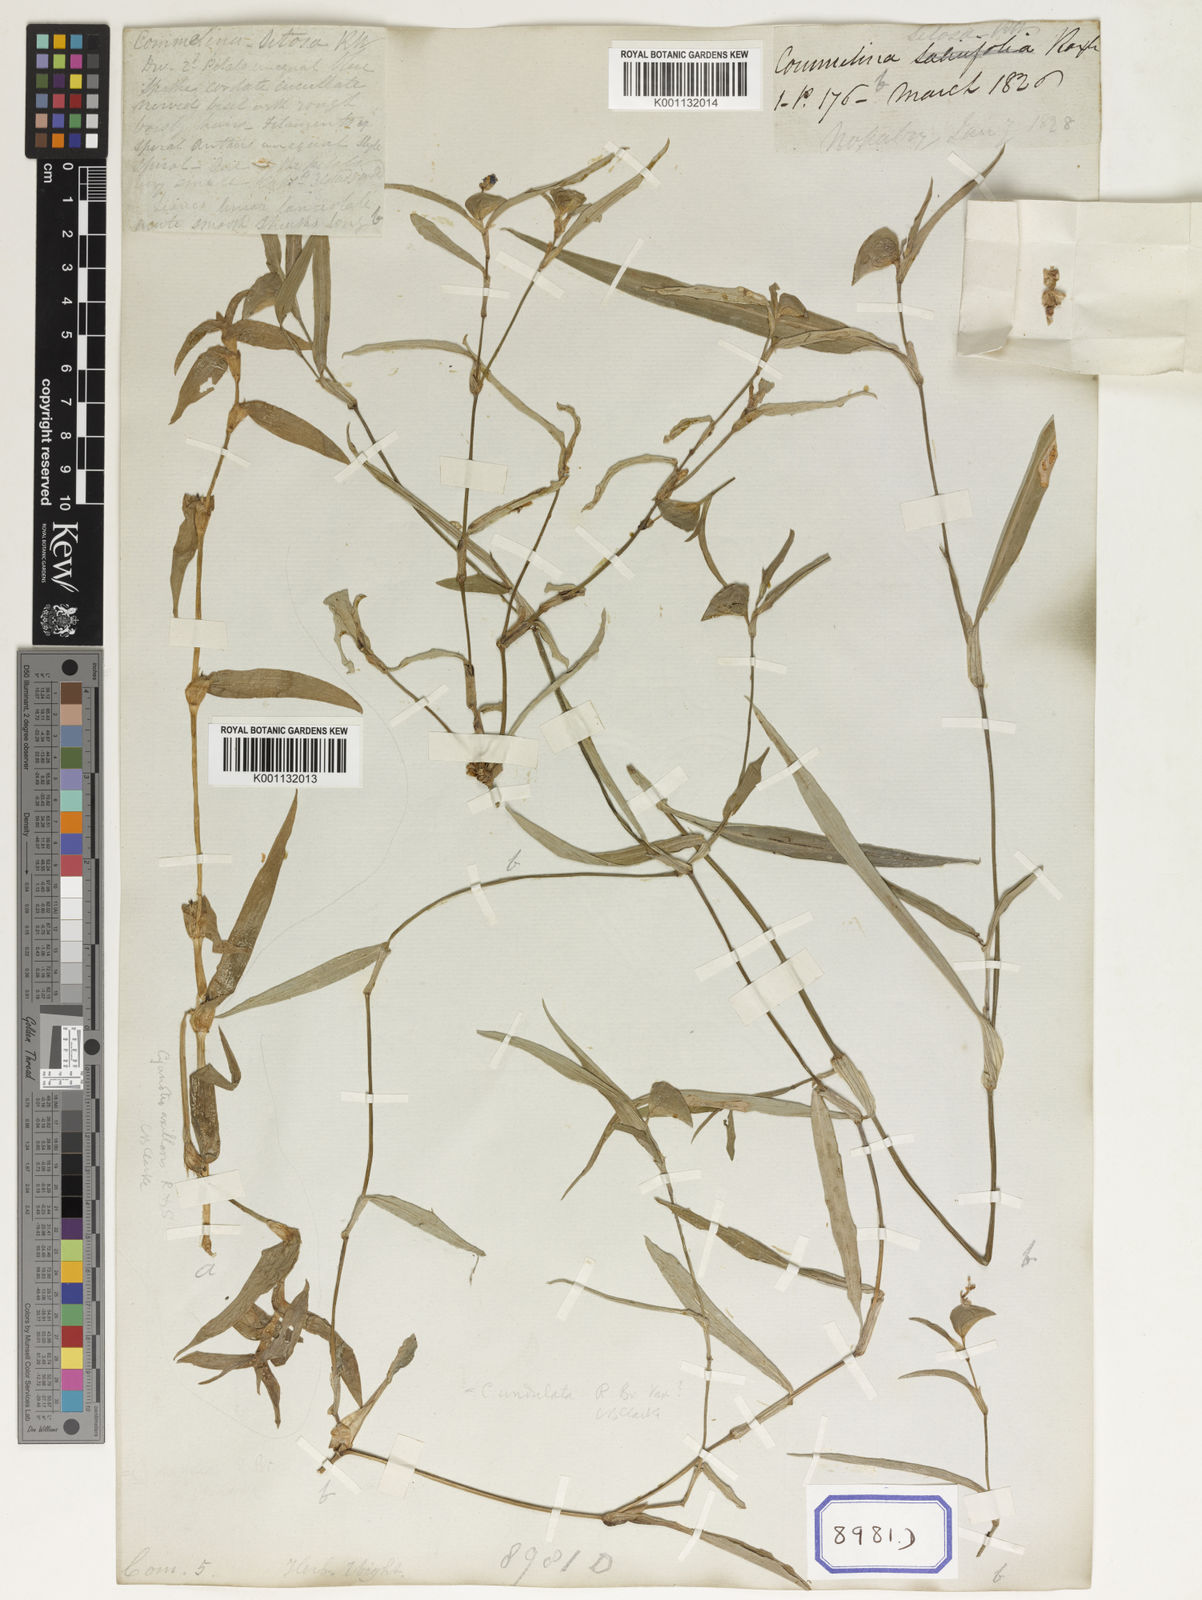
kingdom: Plantae
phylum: Tracheophyta
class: Liliopsida
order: Commelinales
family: Commelinaceae
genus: Commelina
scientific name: Commelina undulata
